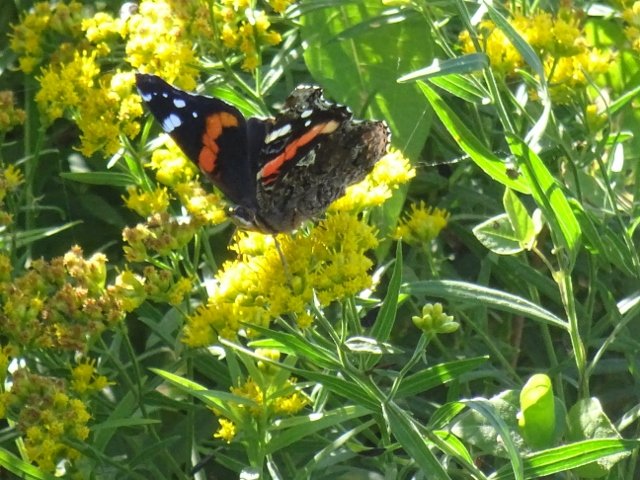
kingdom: Animalia
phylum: Arthropoda
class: Insecta
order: Lepidoptera
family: Nymphalidae
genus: Vanessa
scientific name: Vanessa atalanta
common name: Red Admiral
